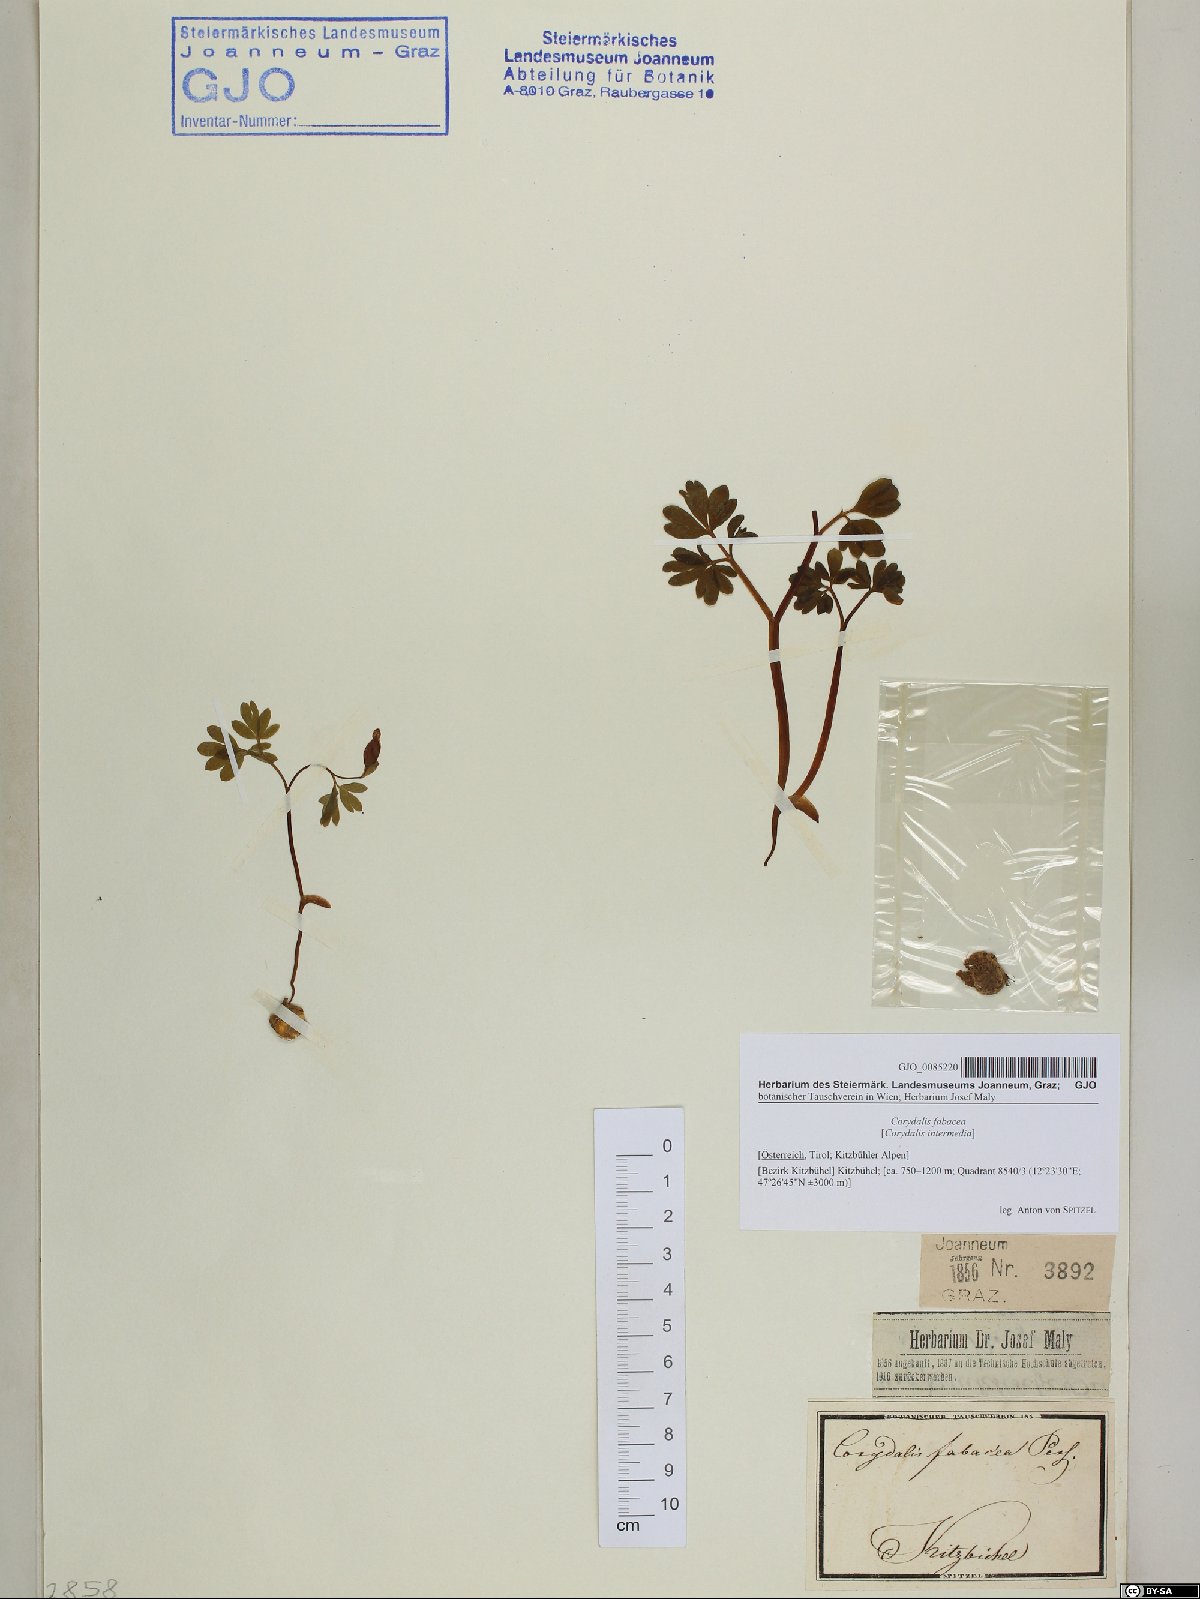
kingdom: Plantae
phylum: Tracheophyta
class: Magnoliopsida
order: Ranunculales
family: Papaveraceae
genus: Corydalis
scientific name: Corydalis intermedia
